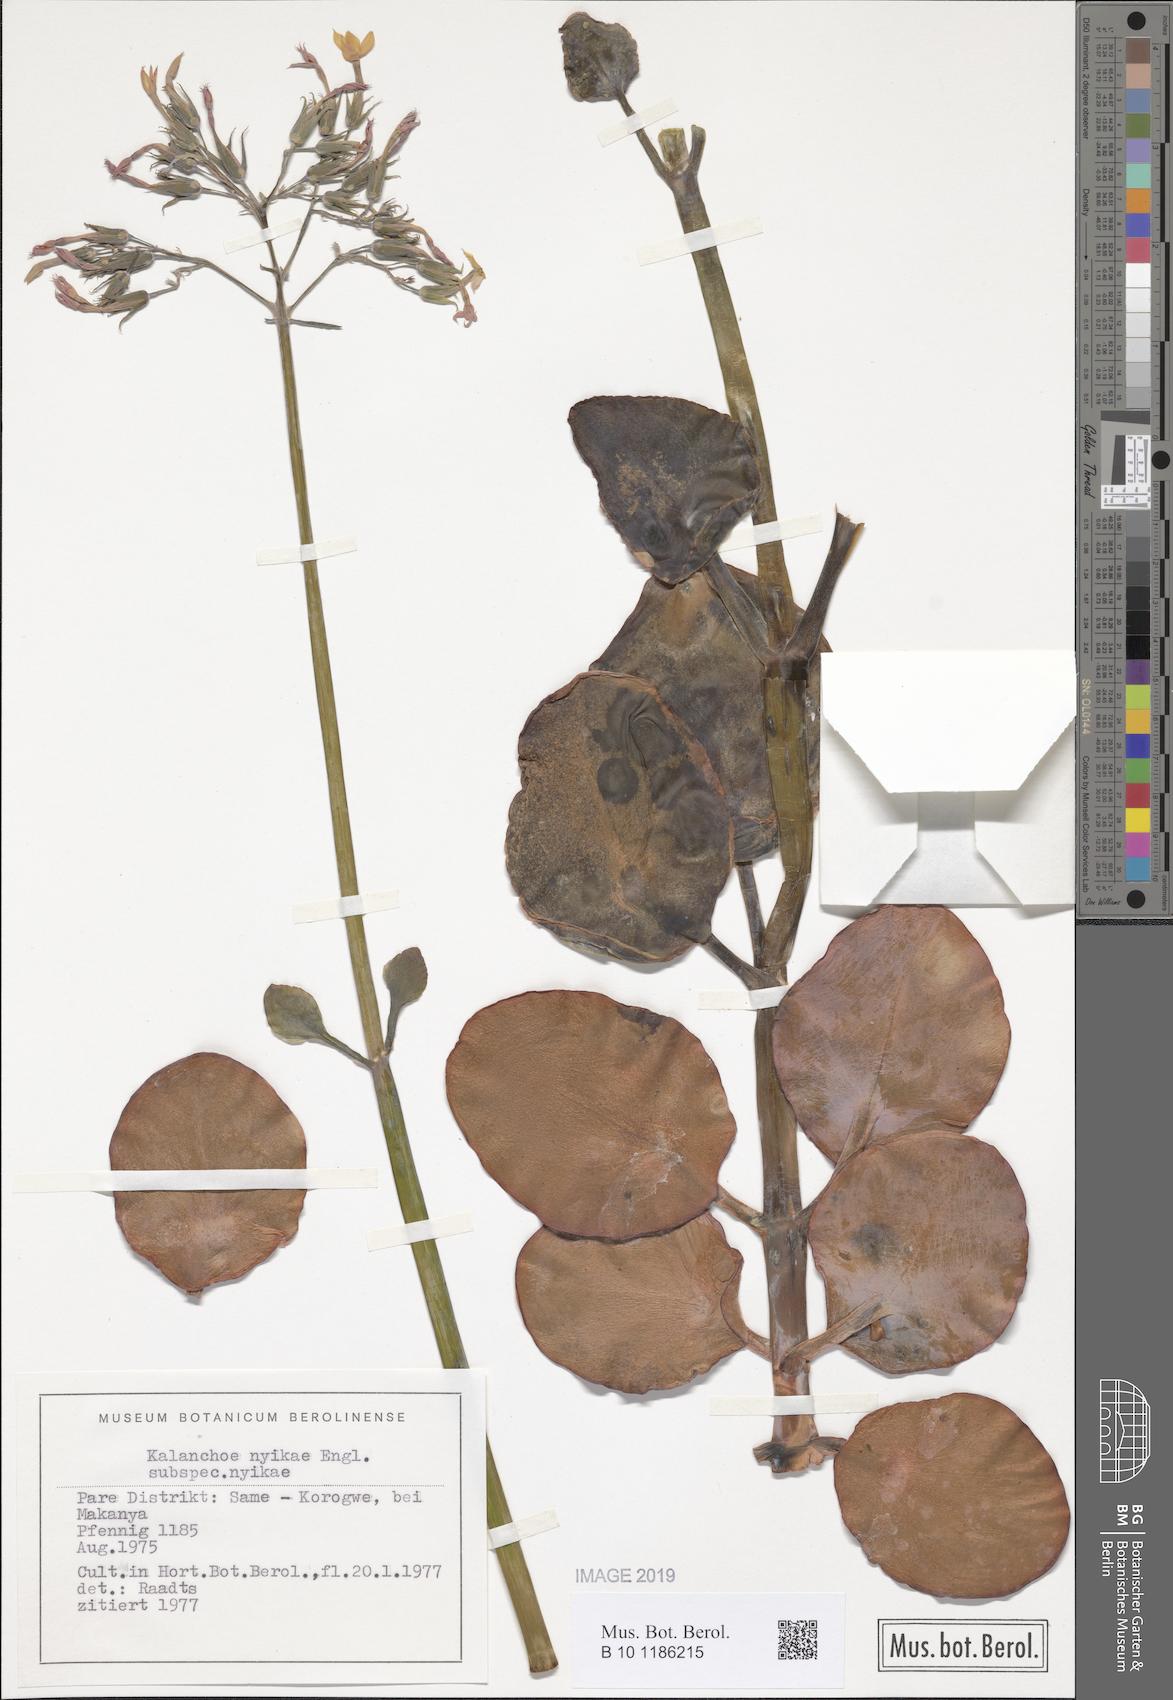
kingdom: Plantae
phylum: Tracheophyta
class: Magnoliopsida
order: Saxifragales
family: Crassulaceae
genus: Kalanchoe
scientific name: Kalanchoe nyikae
